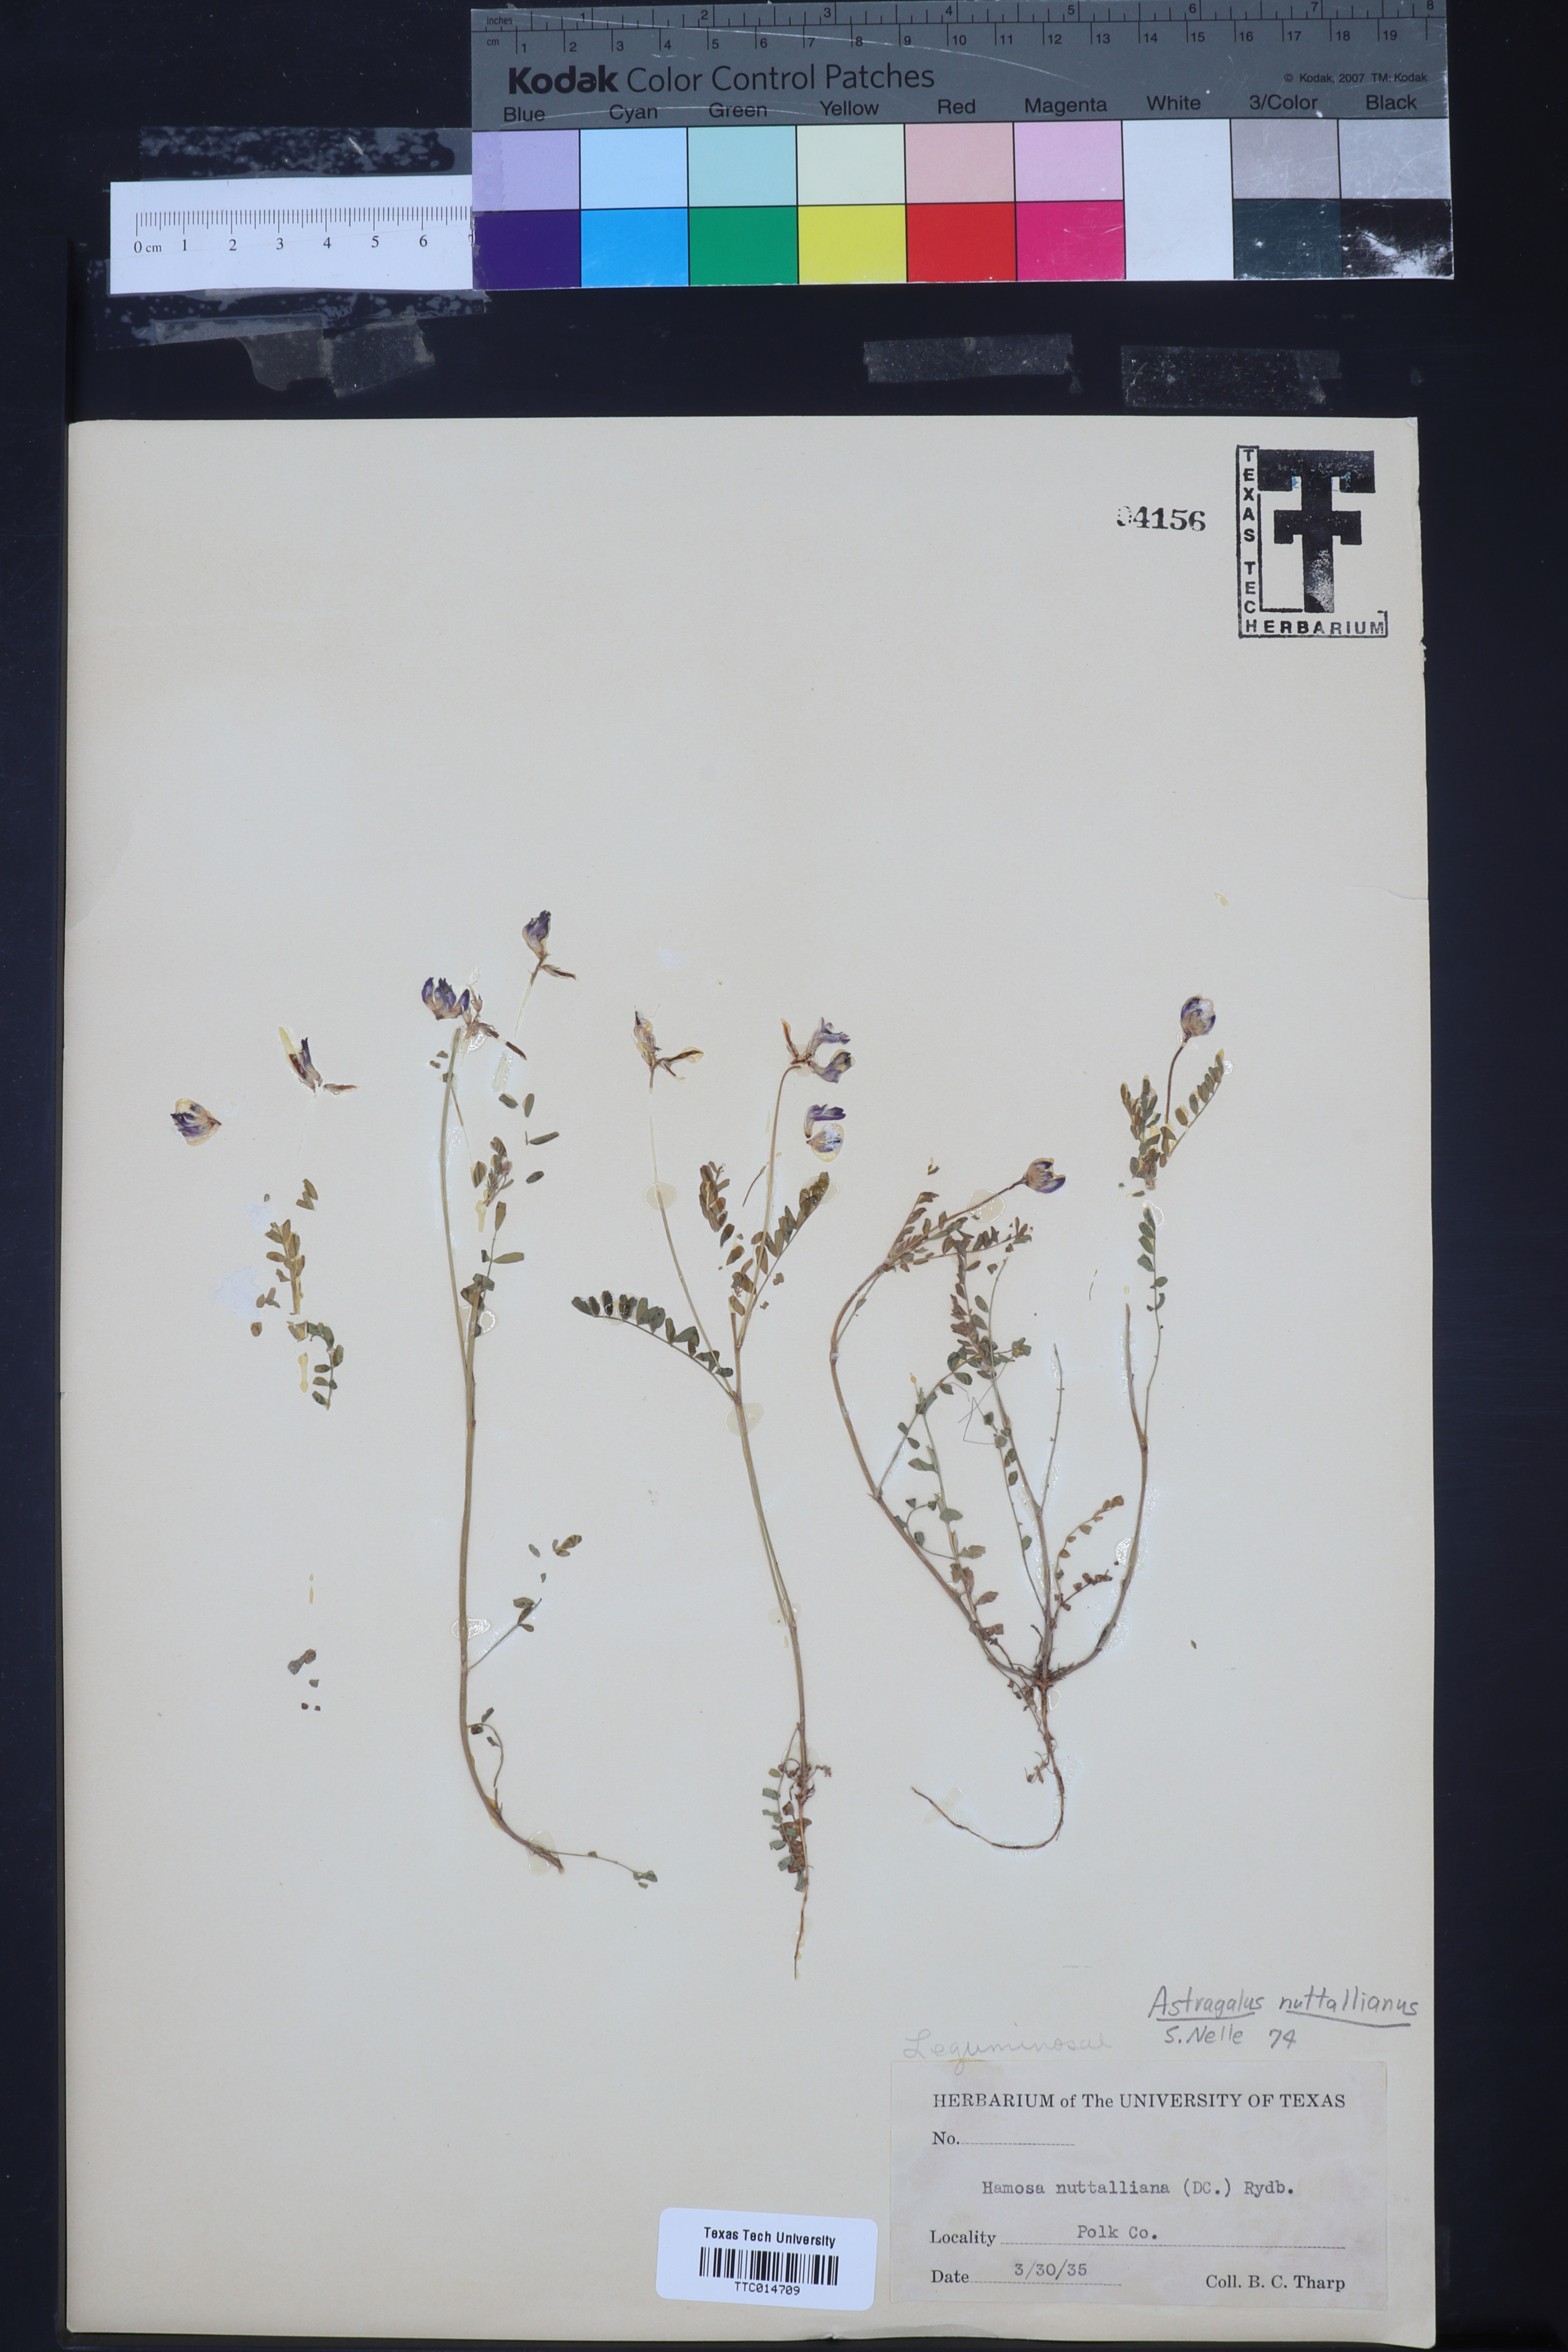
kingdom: Plantae
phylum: Tracheophyta
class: Magnoliopsida
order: Fabales
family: Fabaceae
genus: Astragalus
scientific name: Astragalus nuttallianus
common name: Smallflowered milkvetch
